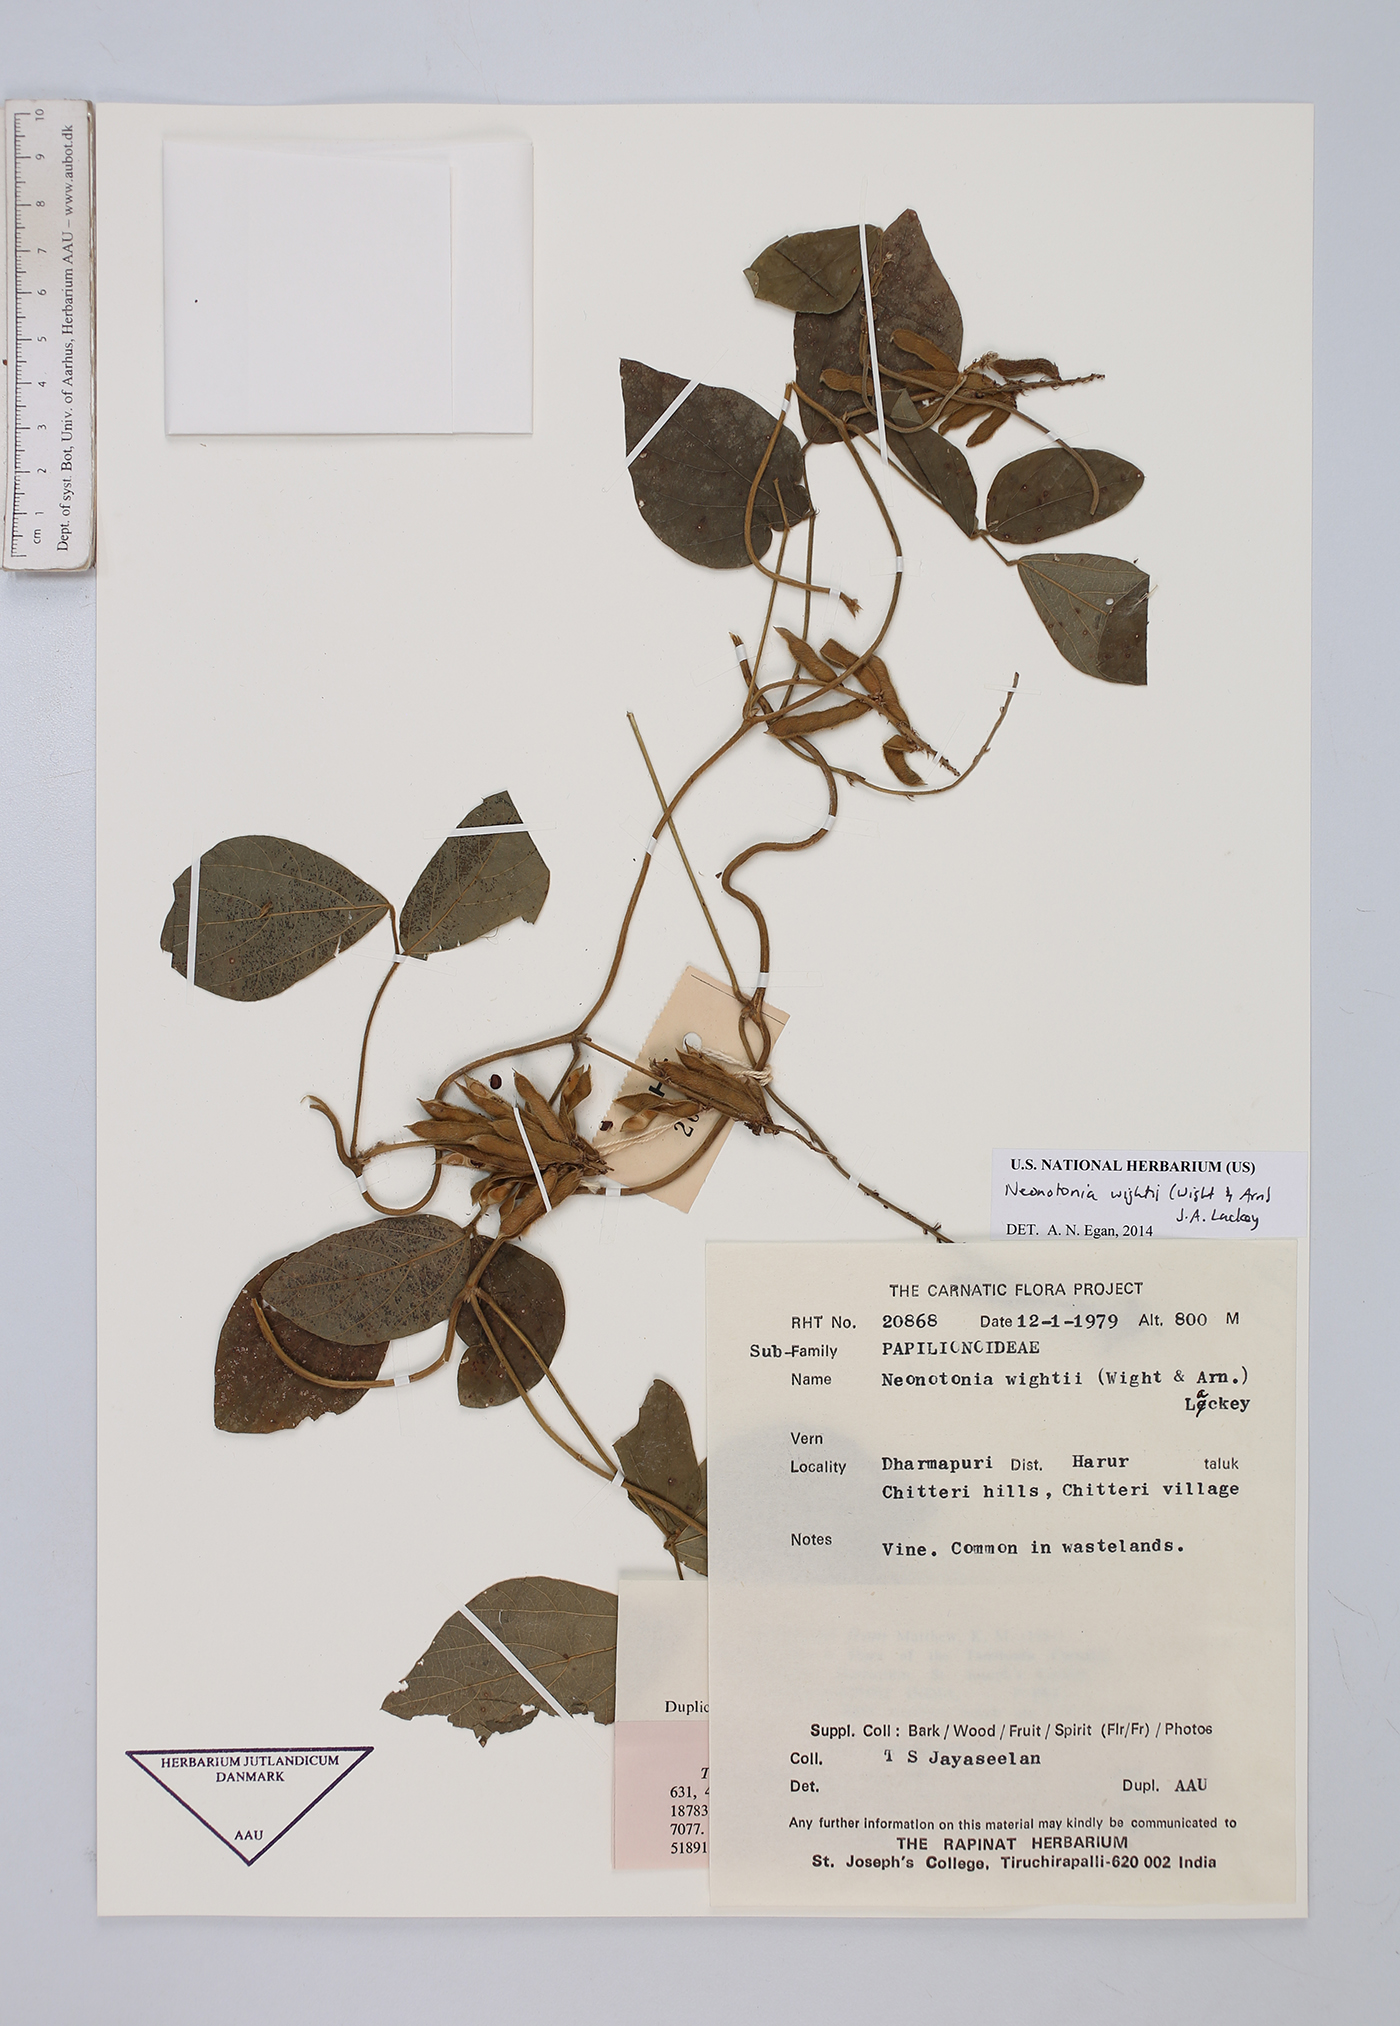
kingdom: Plantae
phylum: Tracheophyta
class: Magnoliopsida
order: Fabales
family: Fabaceae
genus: Neonotonia
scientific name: Neonotonia wightii
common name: Perennial soybean
